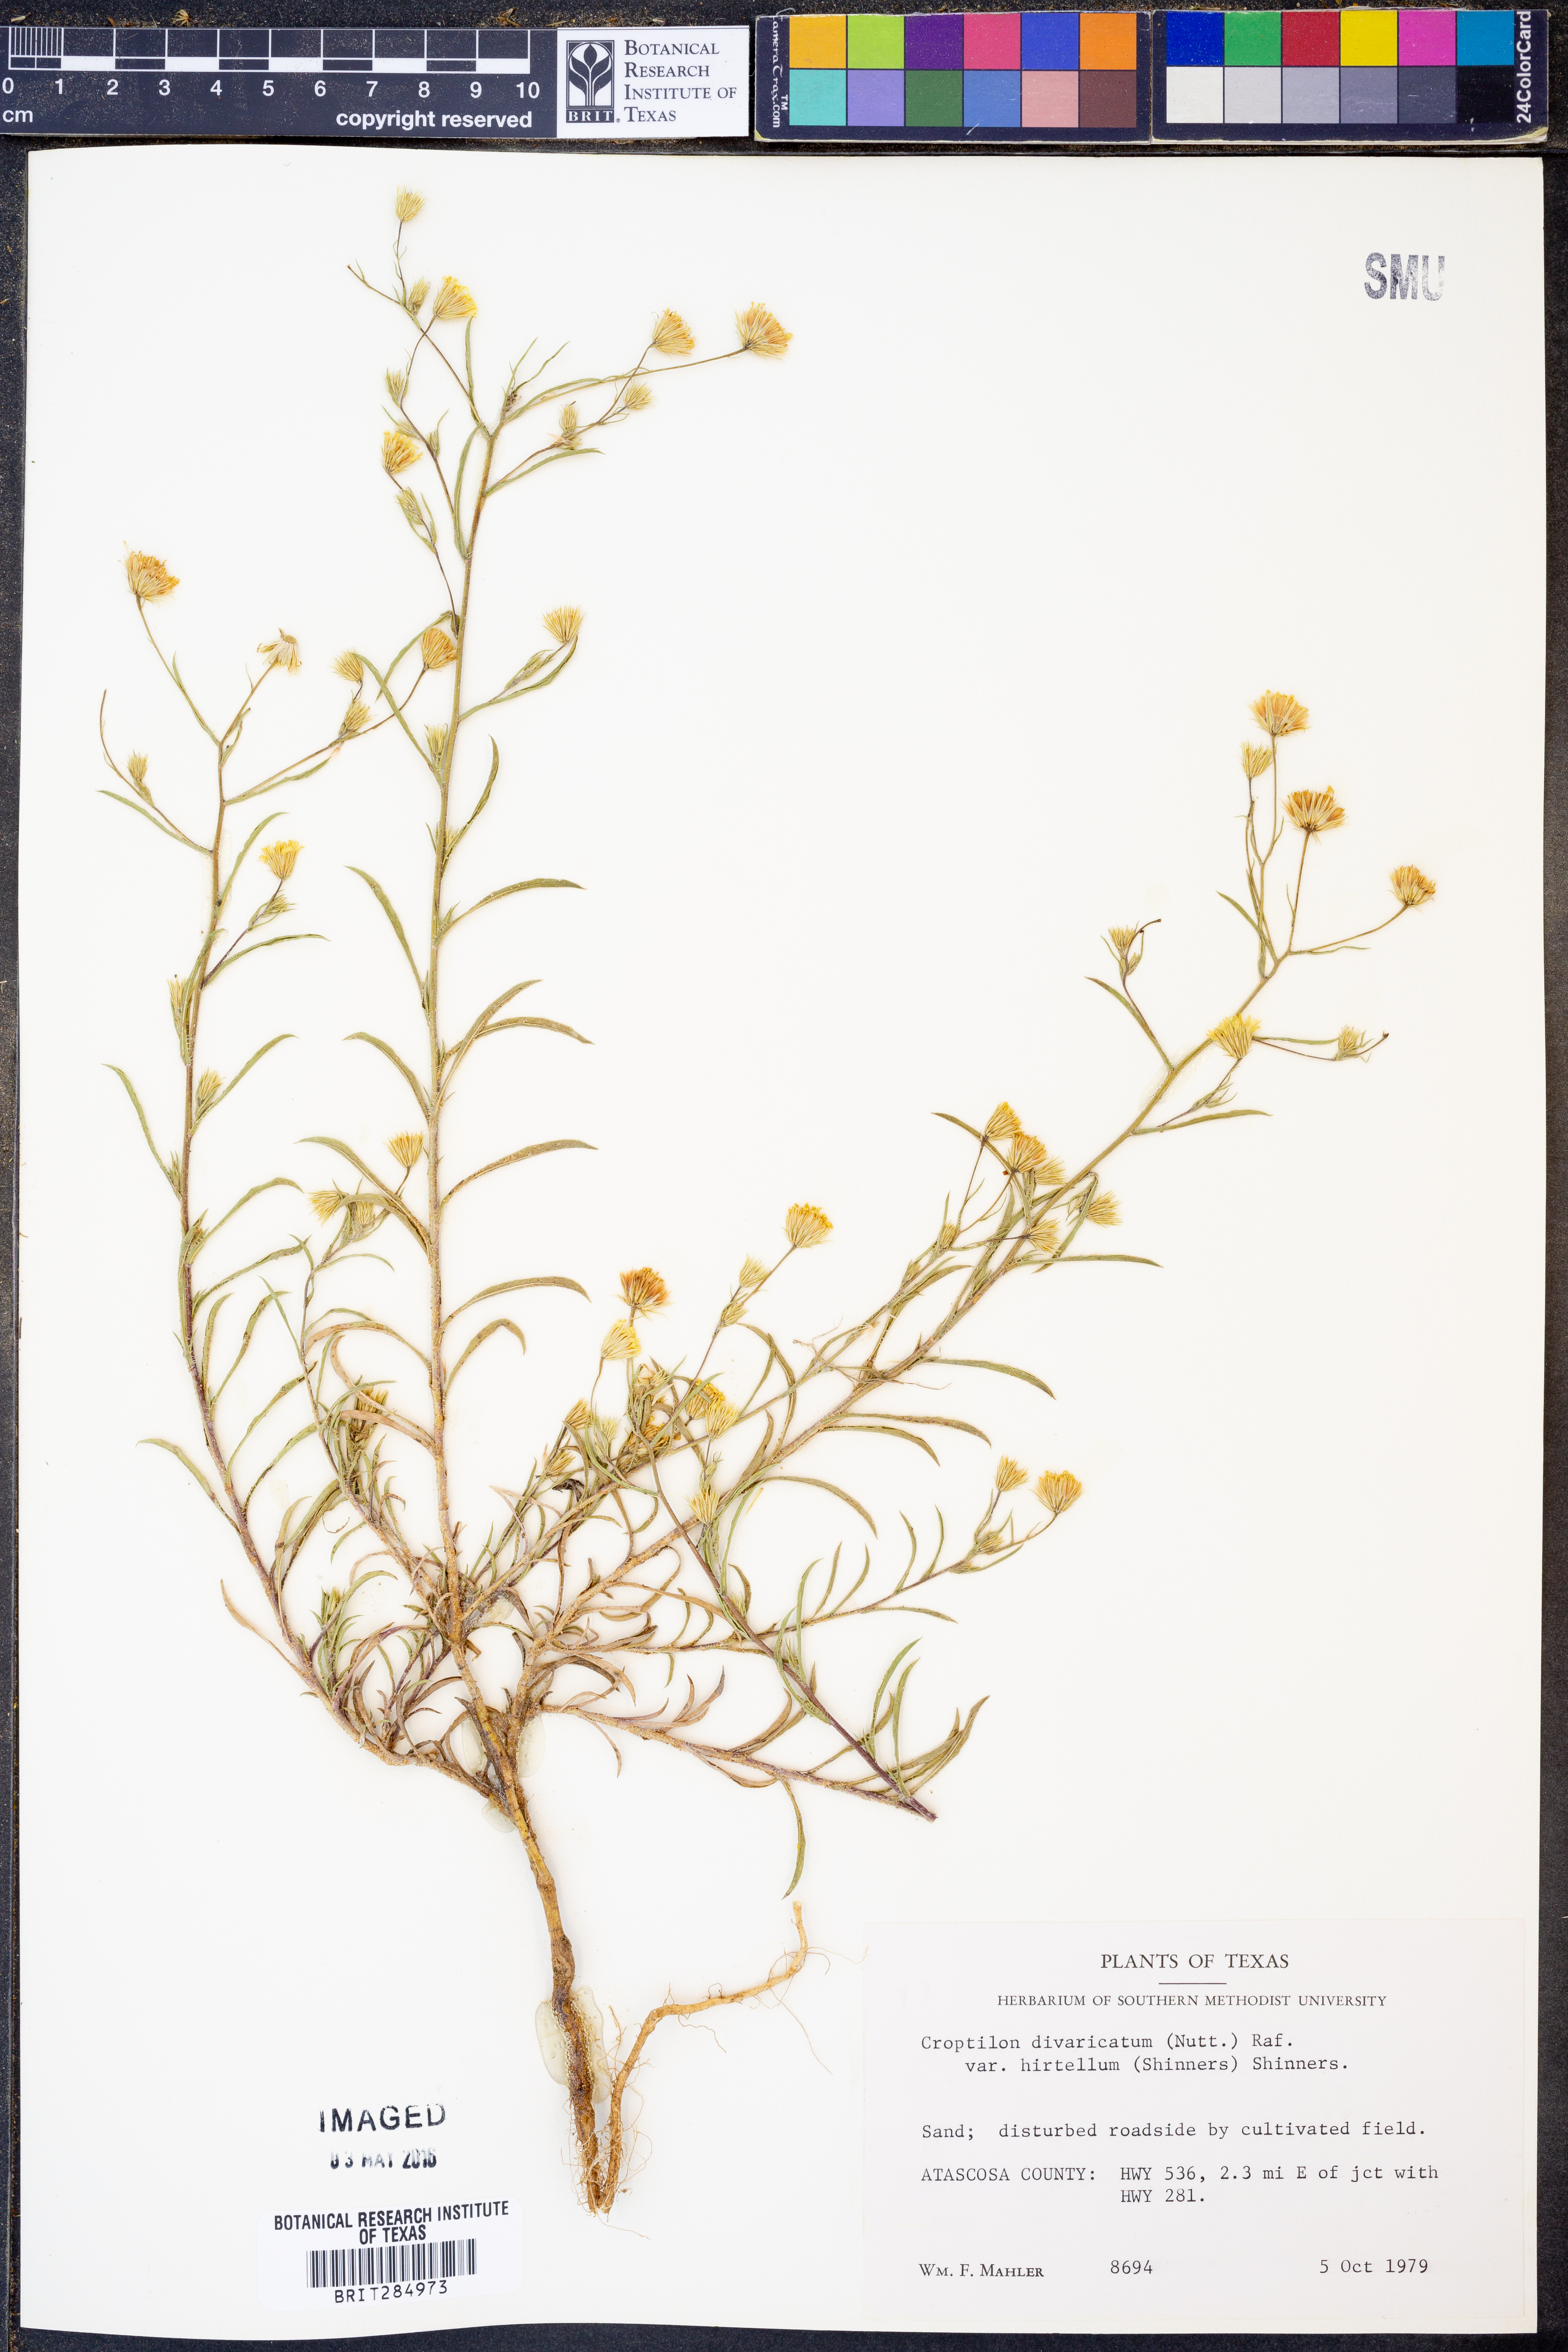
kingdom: Plantae
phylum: Tracheophyta
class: Magnoliopsida
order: Asterales
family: Asteraceae
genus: Croptilon
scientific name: Croptilon rigidifolium
